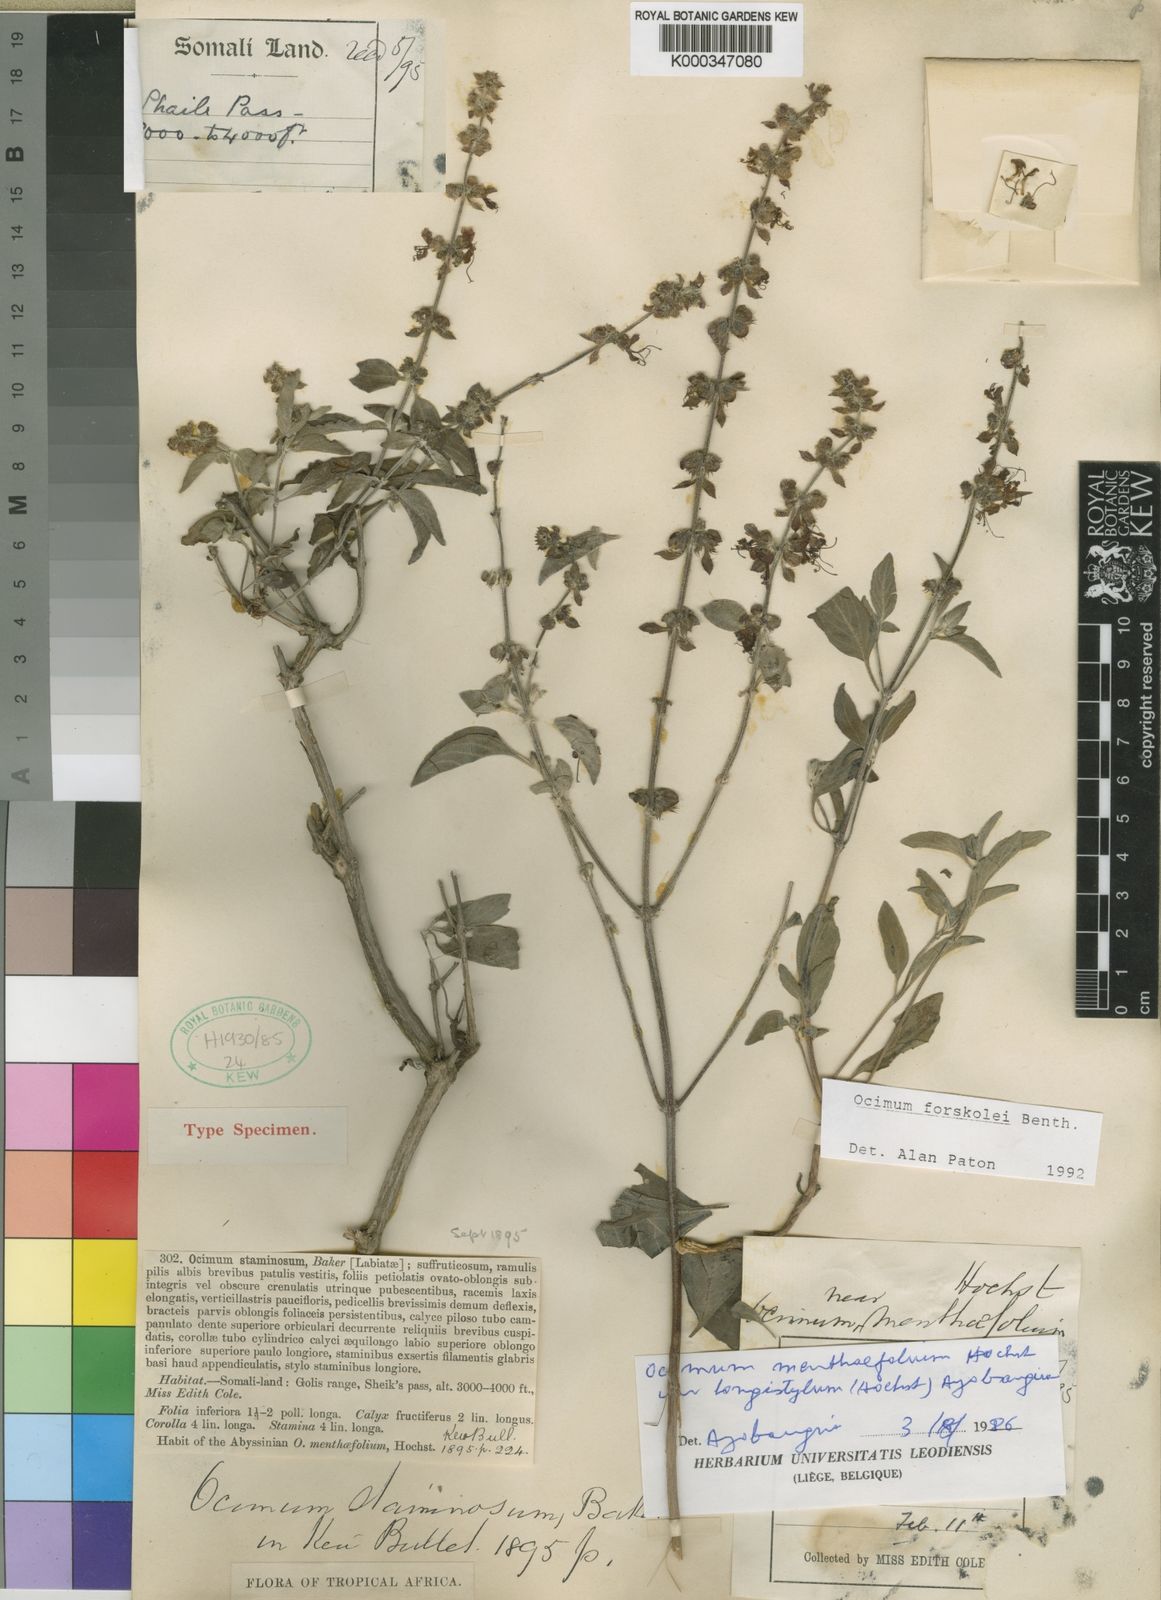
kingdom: Plantae
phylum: Tracheophyta
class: Magnoliopsida
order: Lamiales
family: Lamiaceae
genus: Ocimum
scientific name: Ocimum
